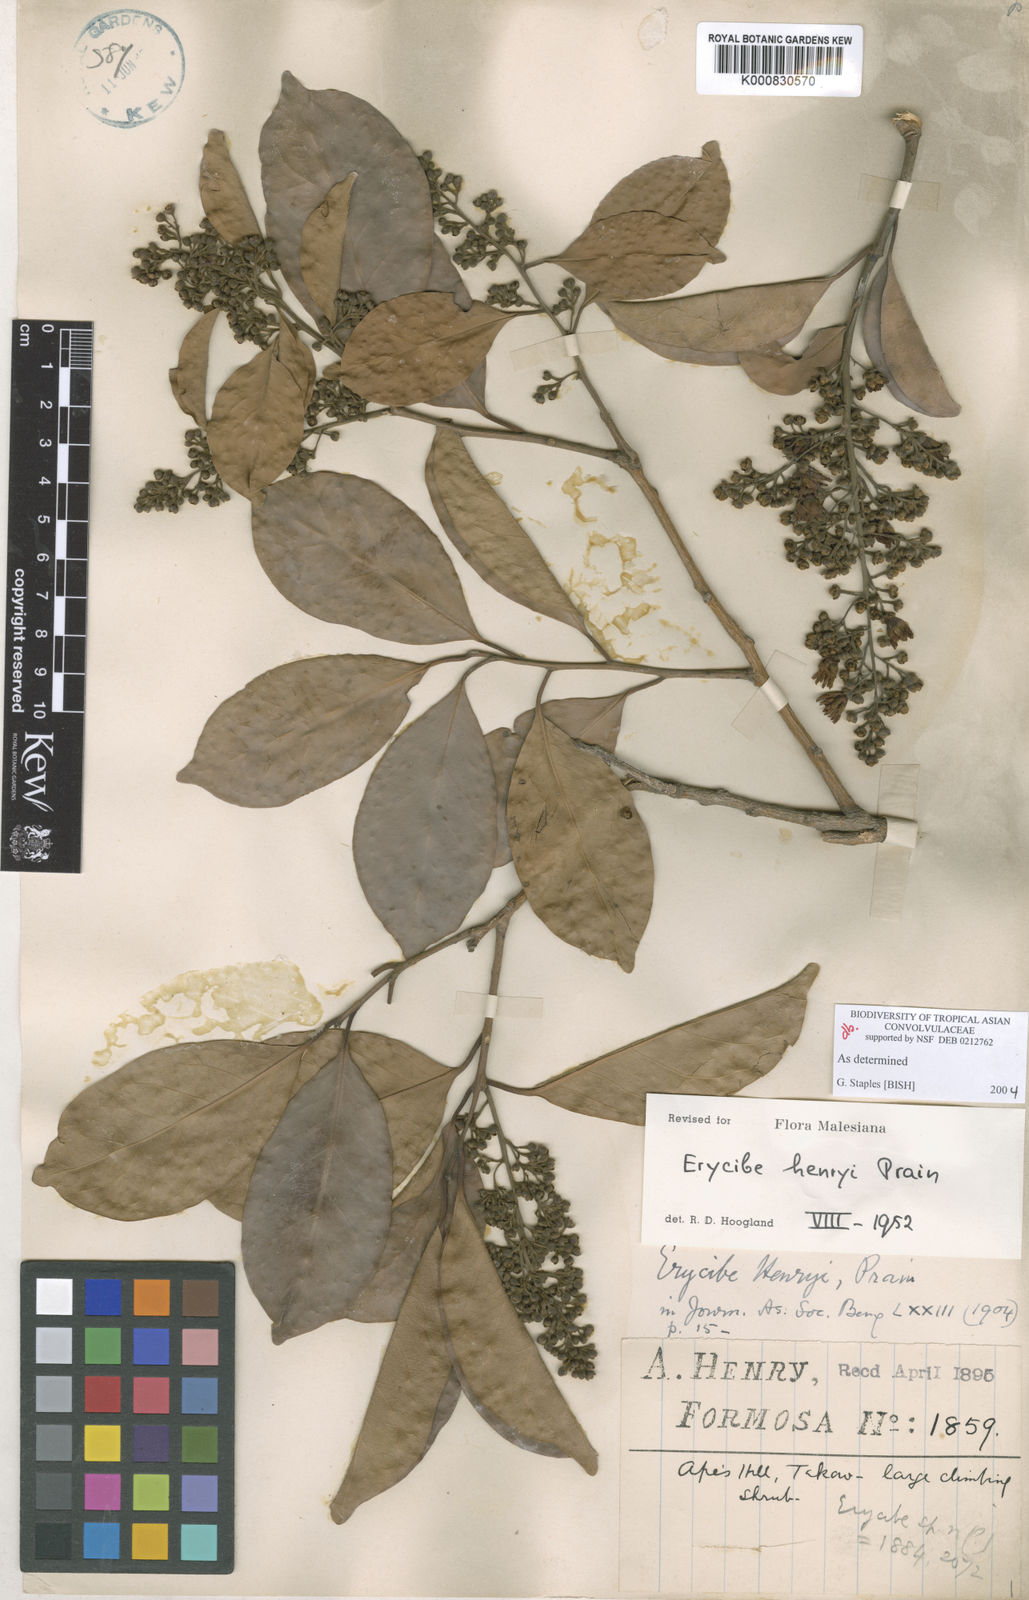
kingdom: Plantae
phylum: Tracheophyta
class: Magnoliopsida
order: Solanales
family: Convolvulaceae
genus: Erycibe
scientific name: Erycibe henryi
